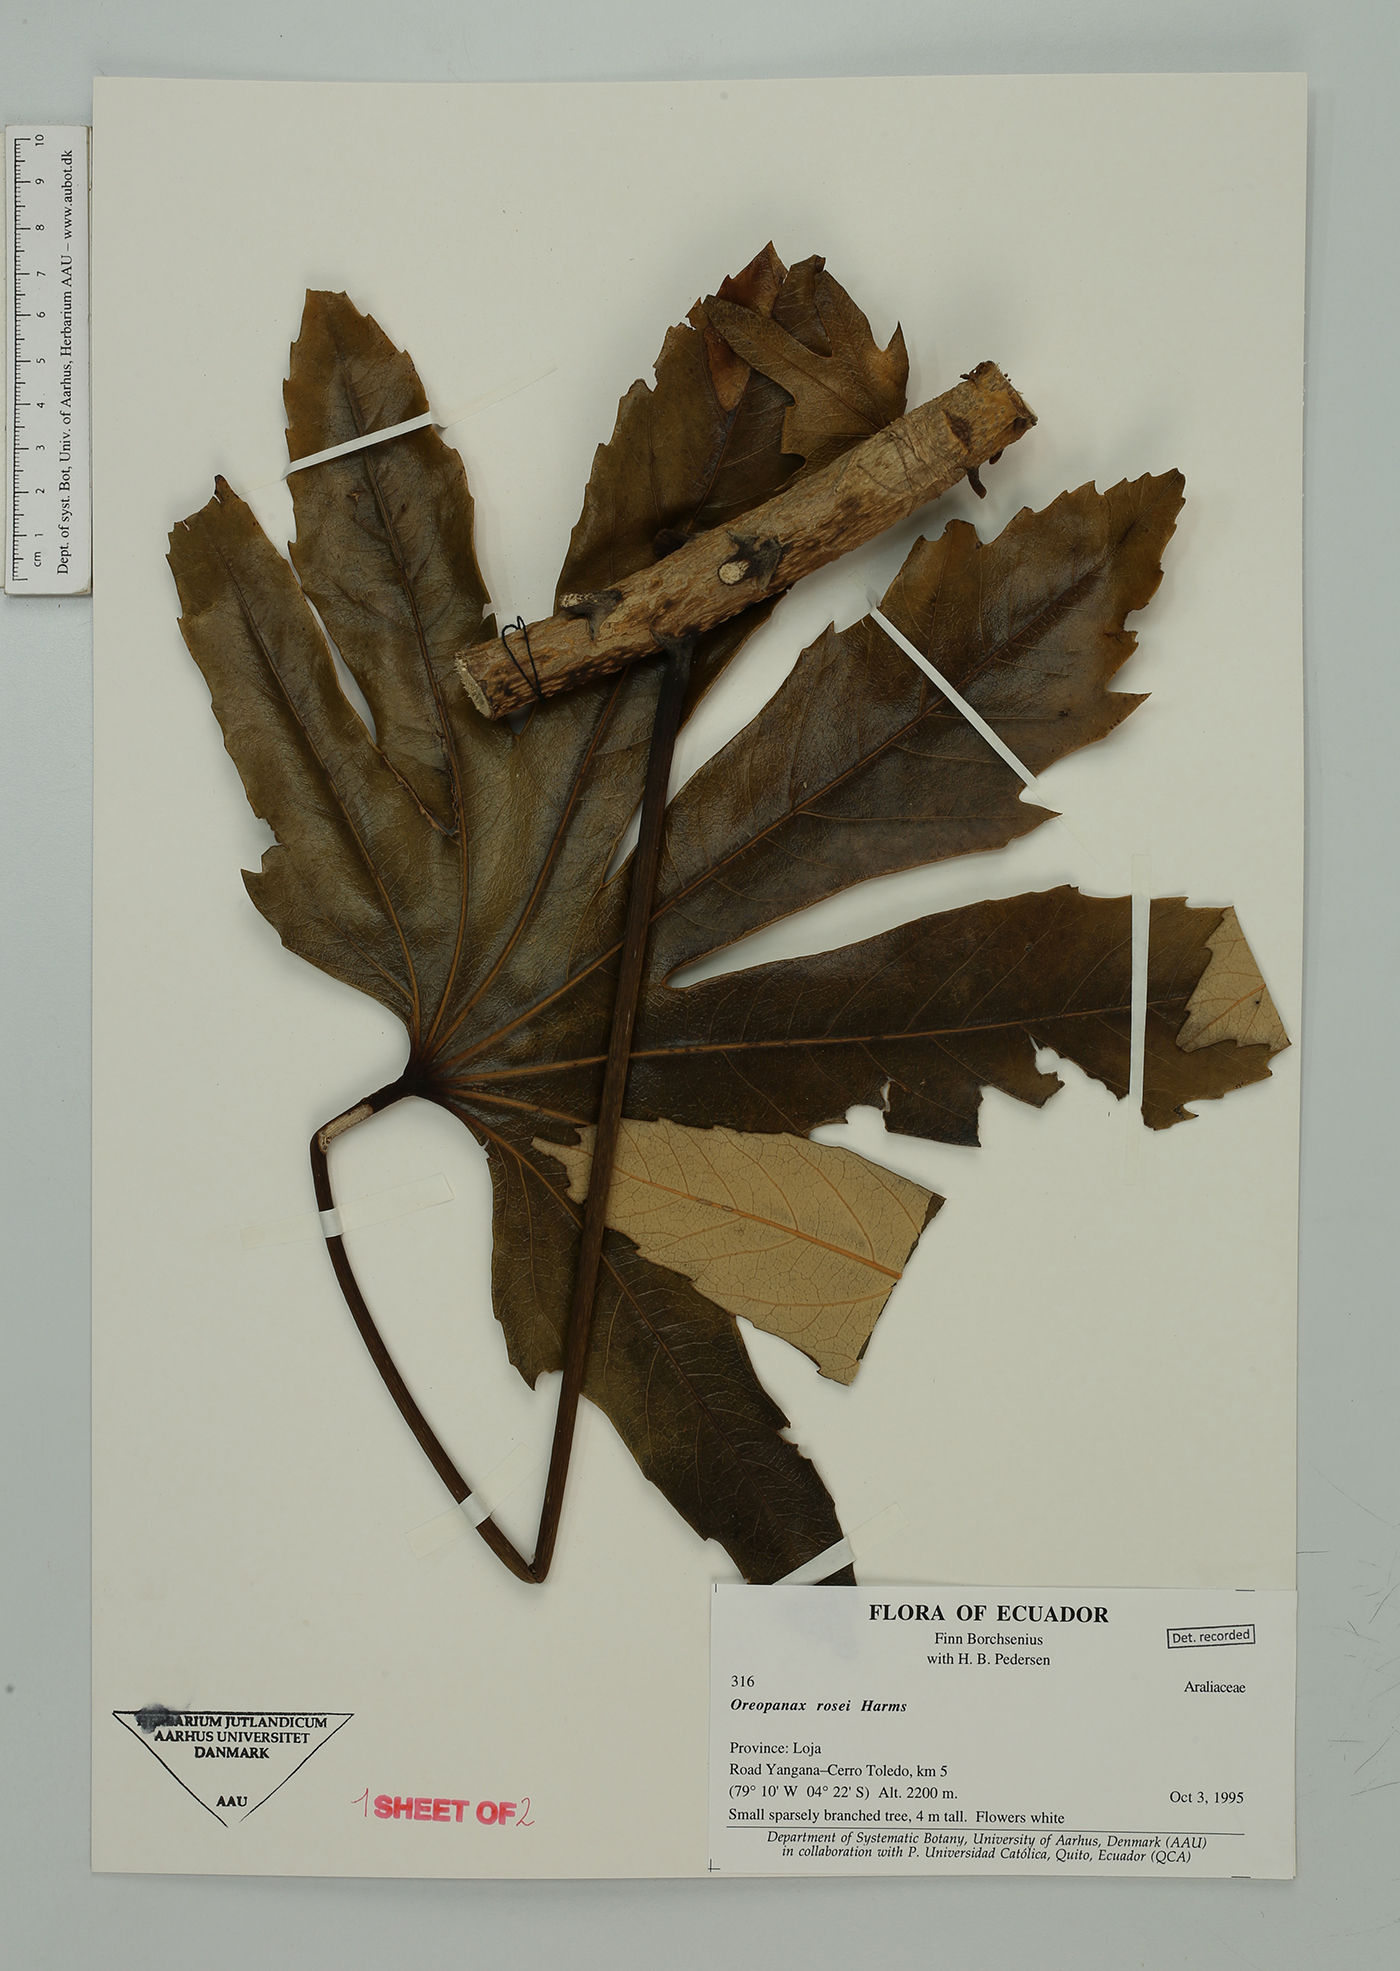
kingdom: Plantae
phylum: Tracheophyta
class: Magnoliopsida
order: Apiales
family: Araliaceae
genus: Oreopanax
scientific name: Oreopanax rosei
